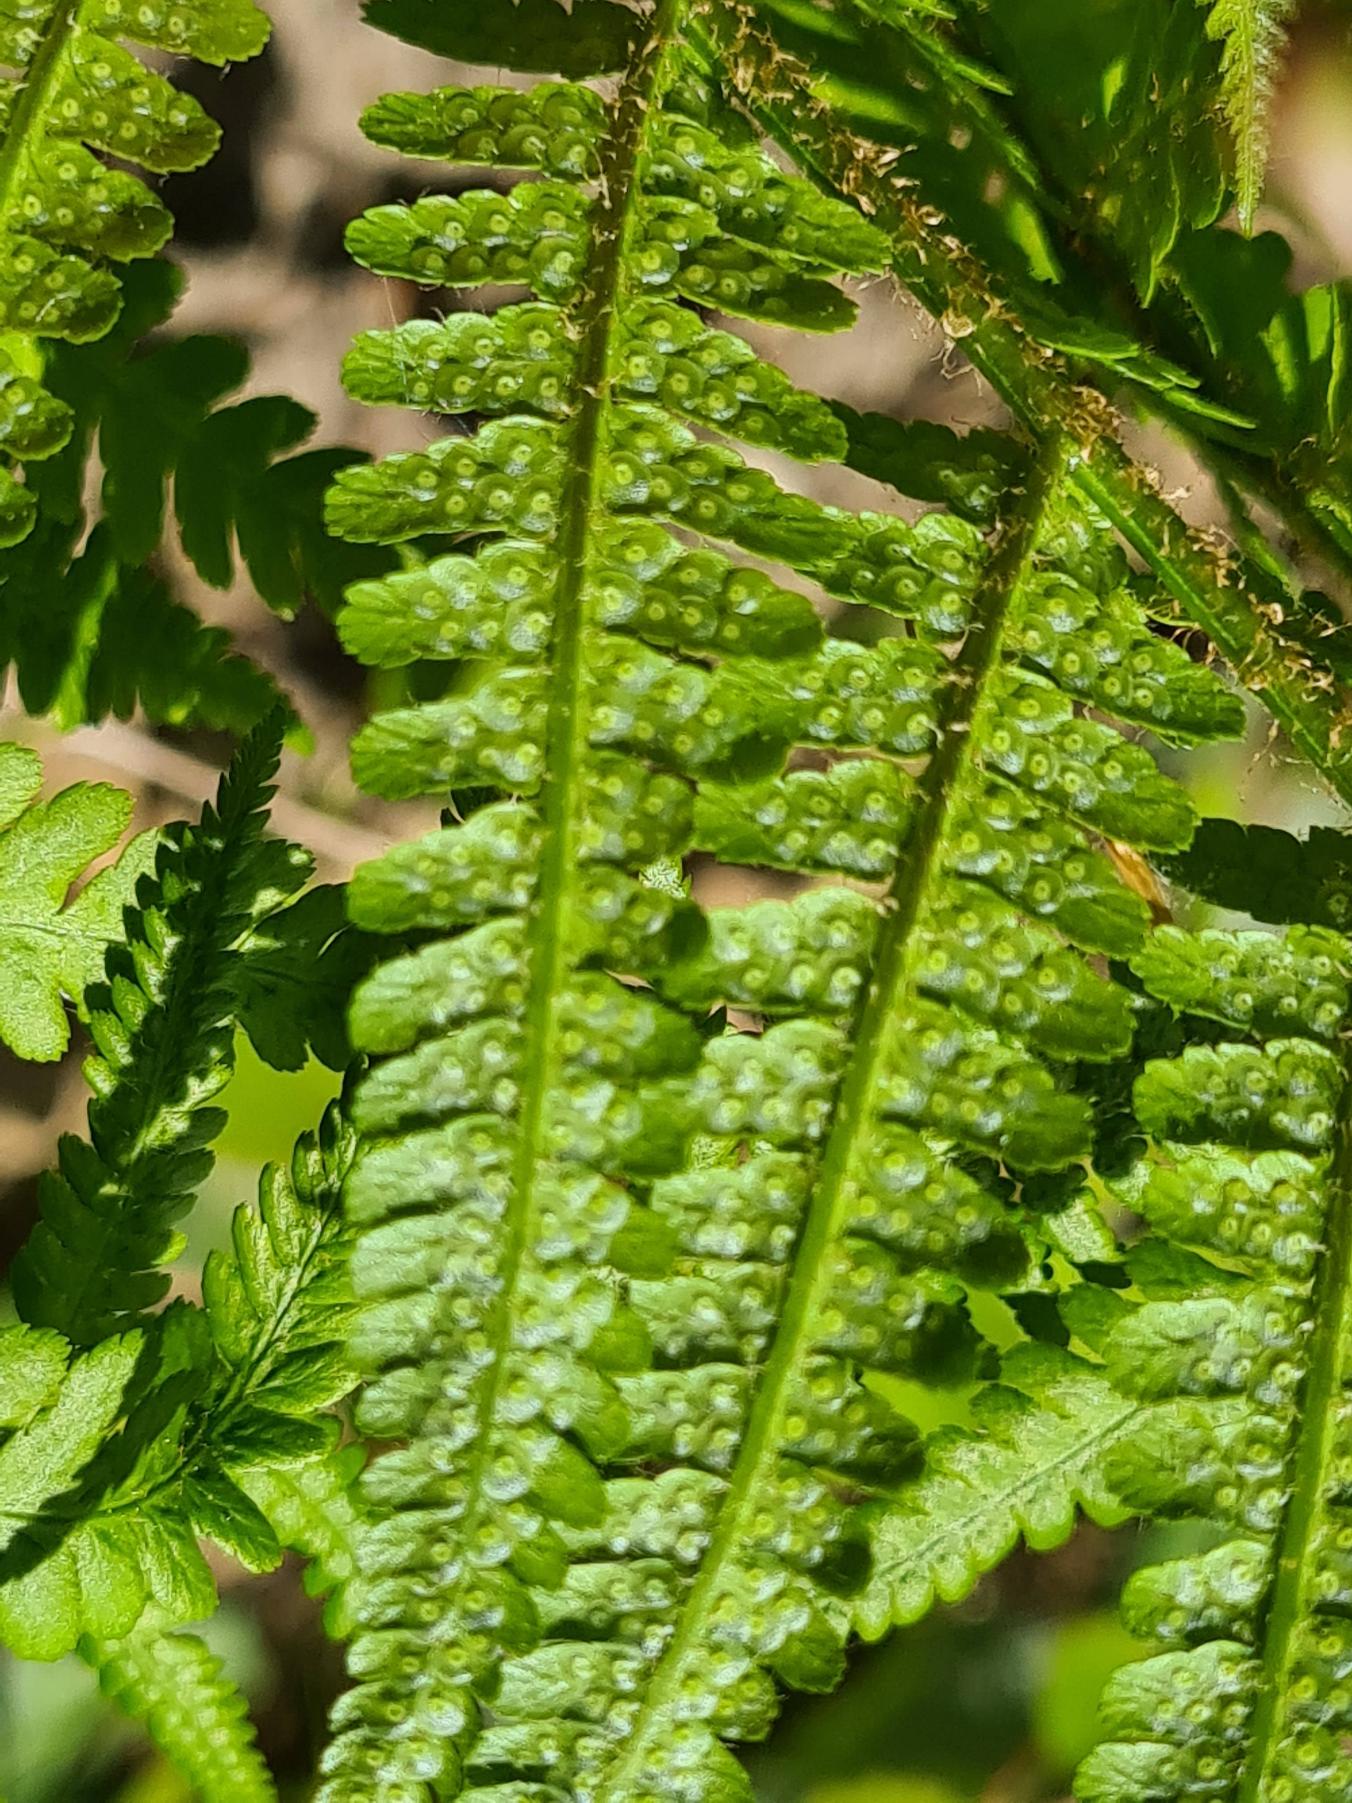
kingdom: Plantae
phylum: Tracheophyta
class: Polypodiopsida
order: Polypodiales
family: Dryopteridaceae
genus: Dryopteris
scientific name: Dryopteris filix-mas
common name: Almindelig mangeløv
